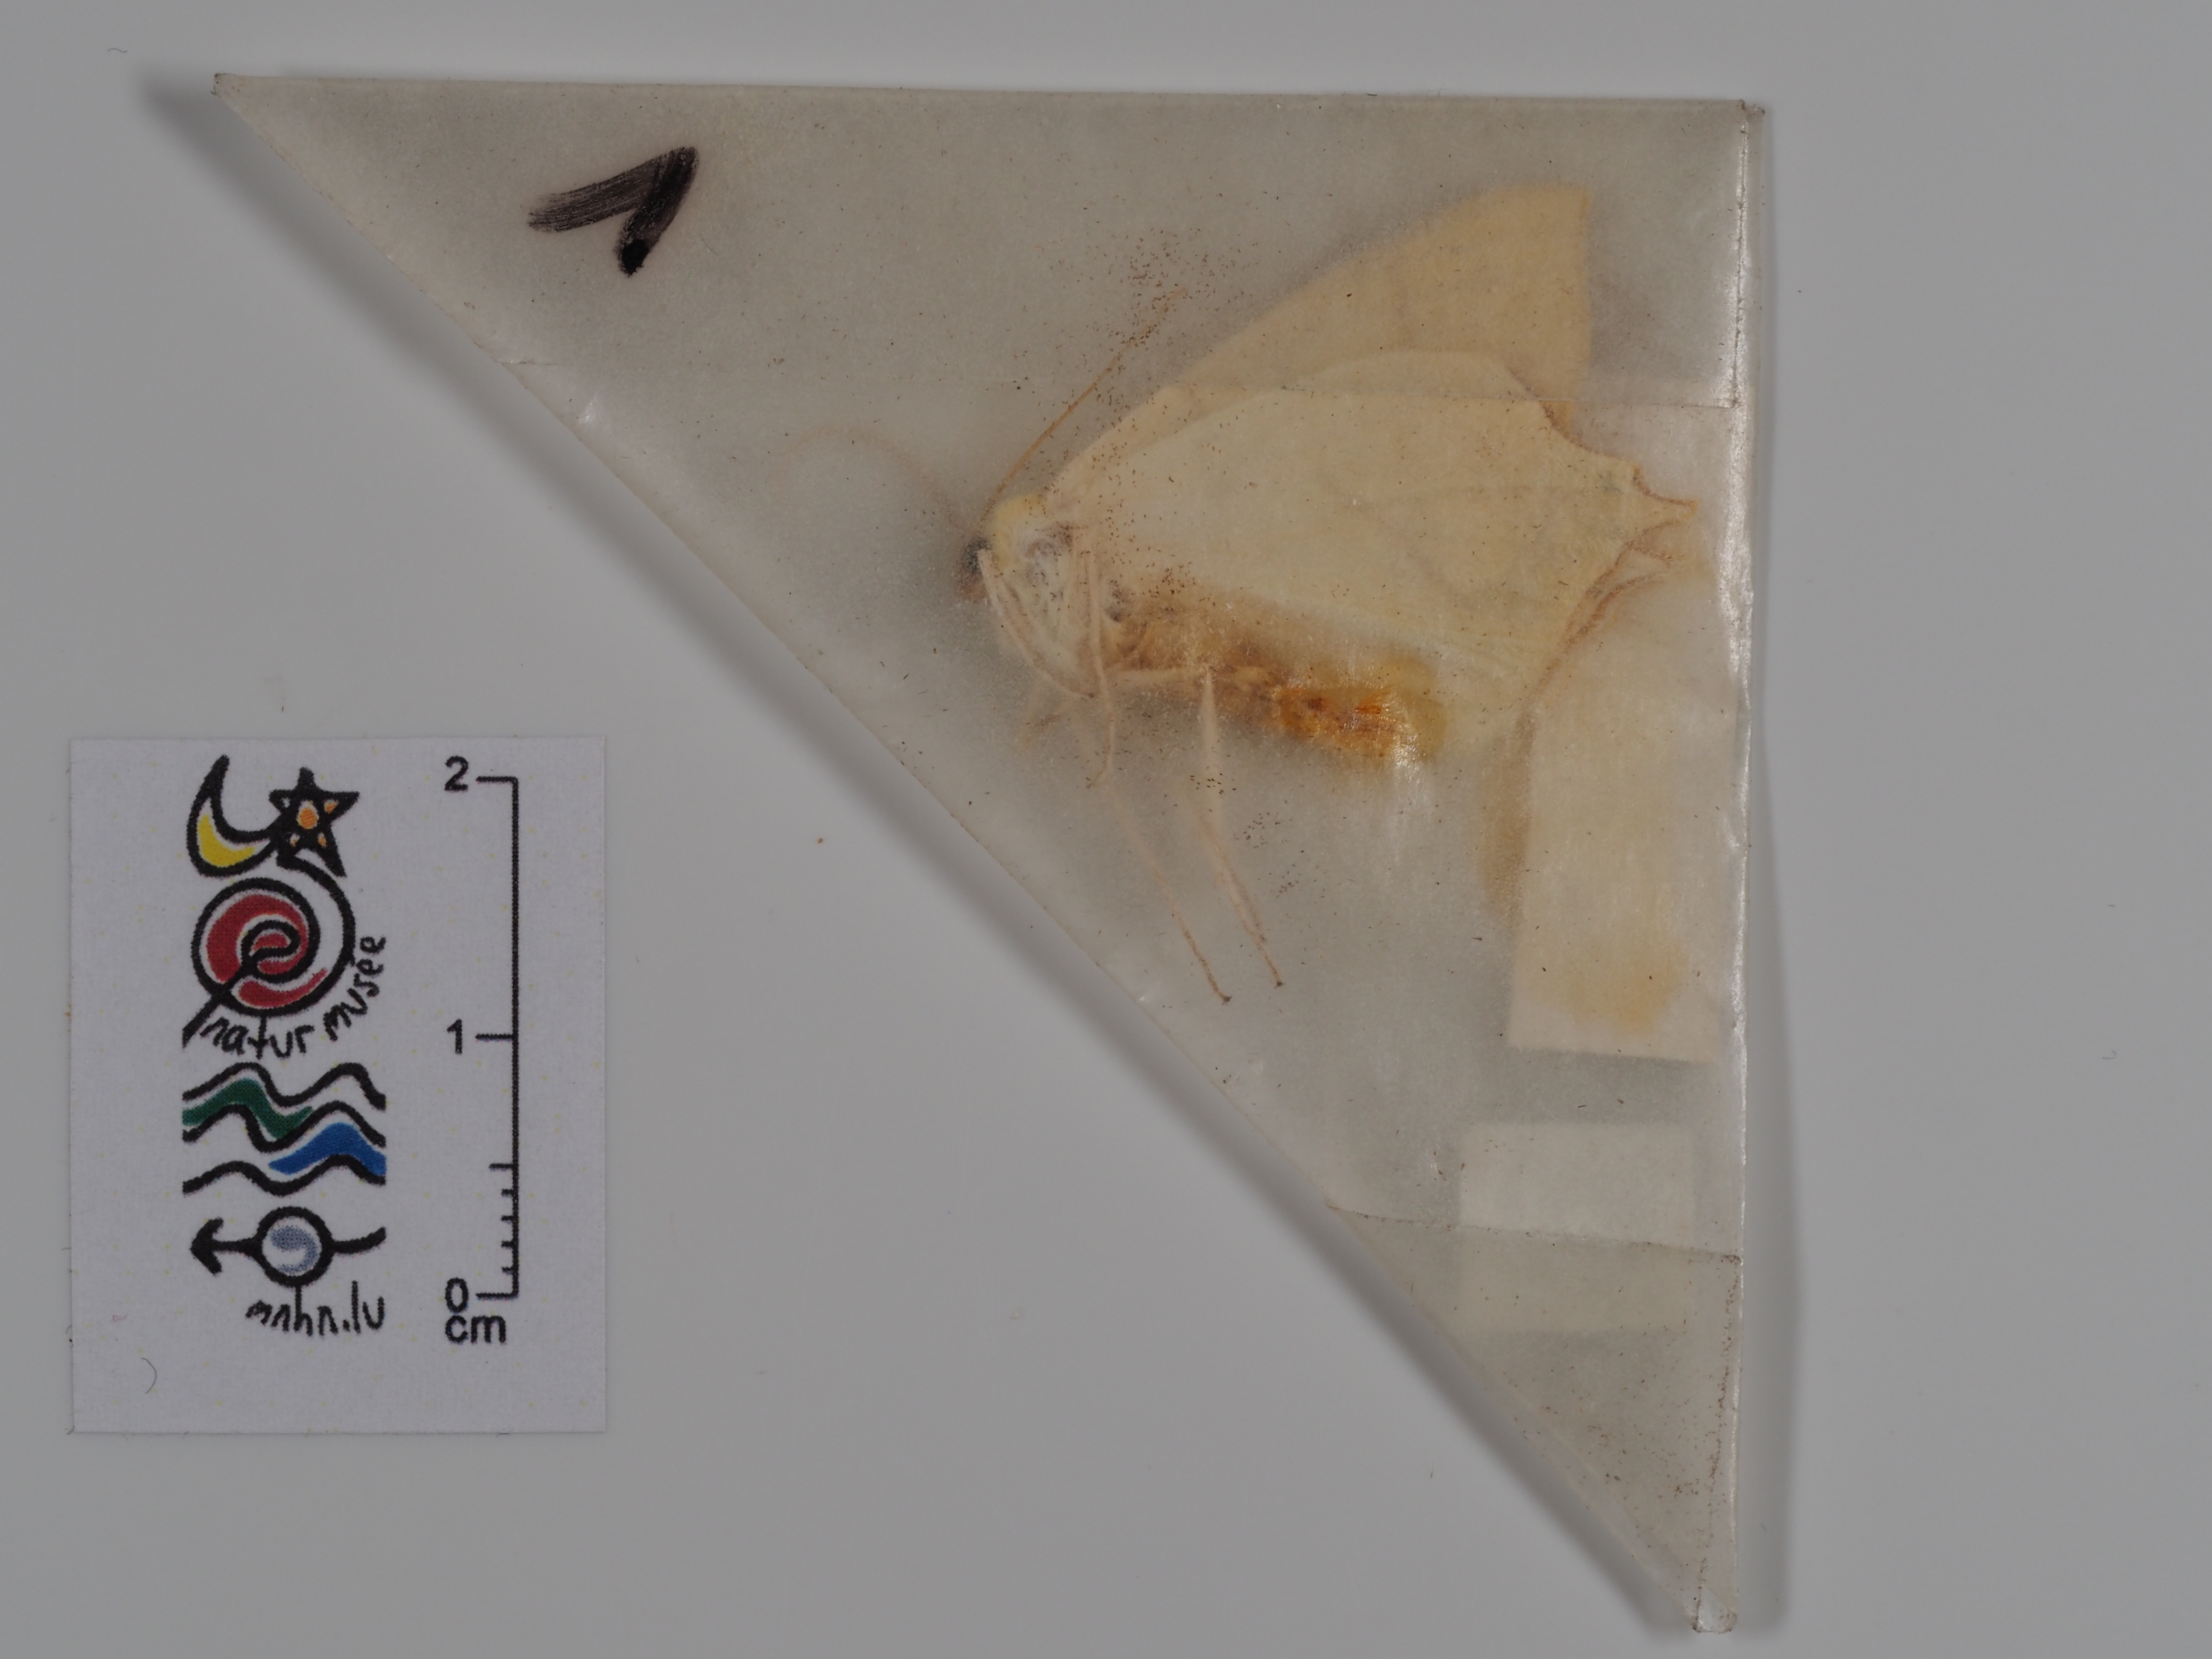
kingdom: Animalia
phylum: Arthropoda
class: Insecta
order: Lepidoptera
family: Geometridae
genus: Ourapteryx
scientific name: Ourapteryx sambucaria
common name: Swallow-tailed moth
